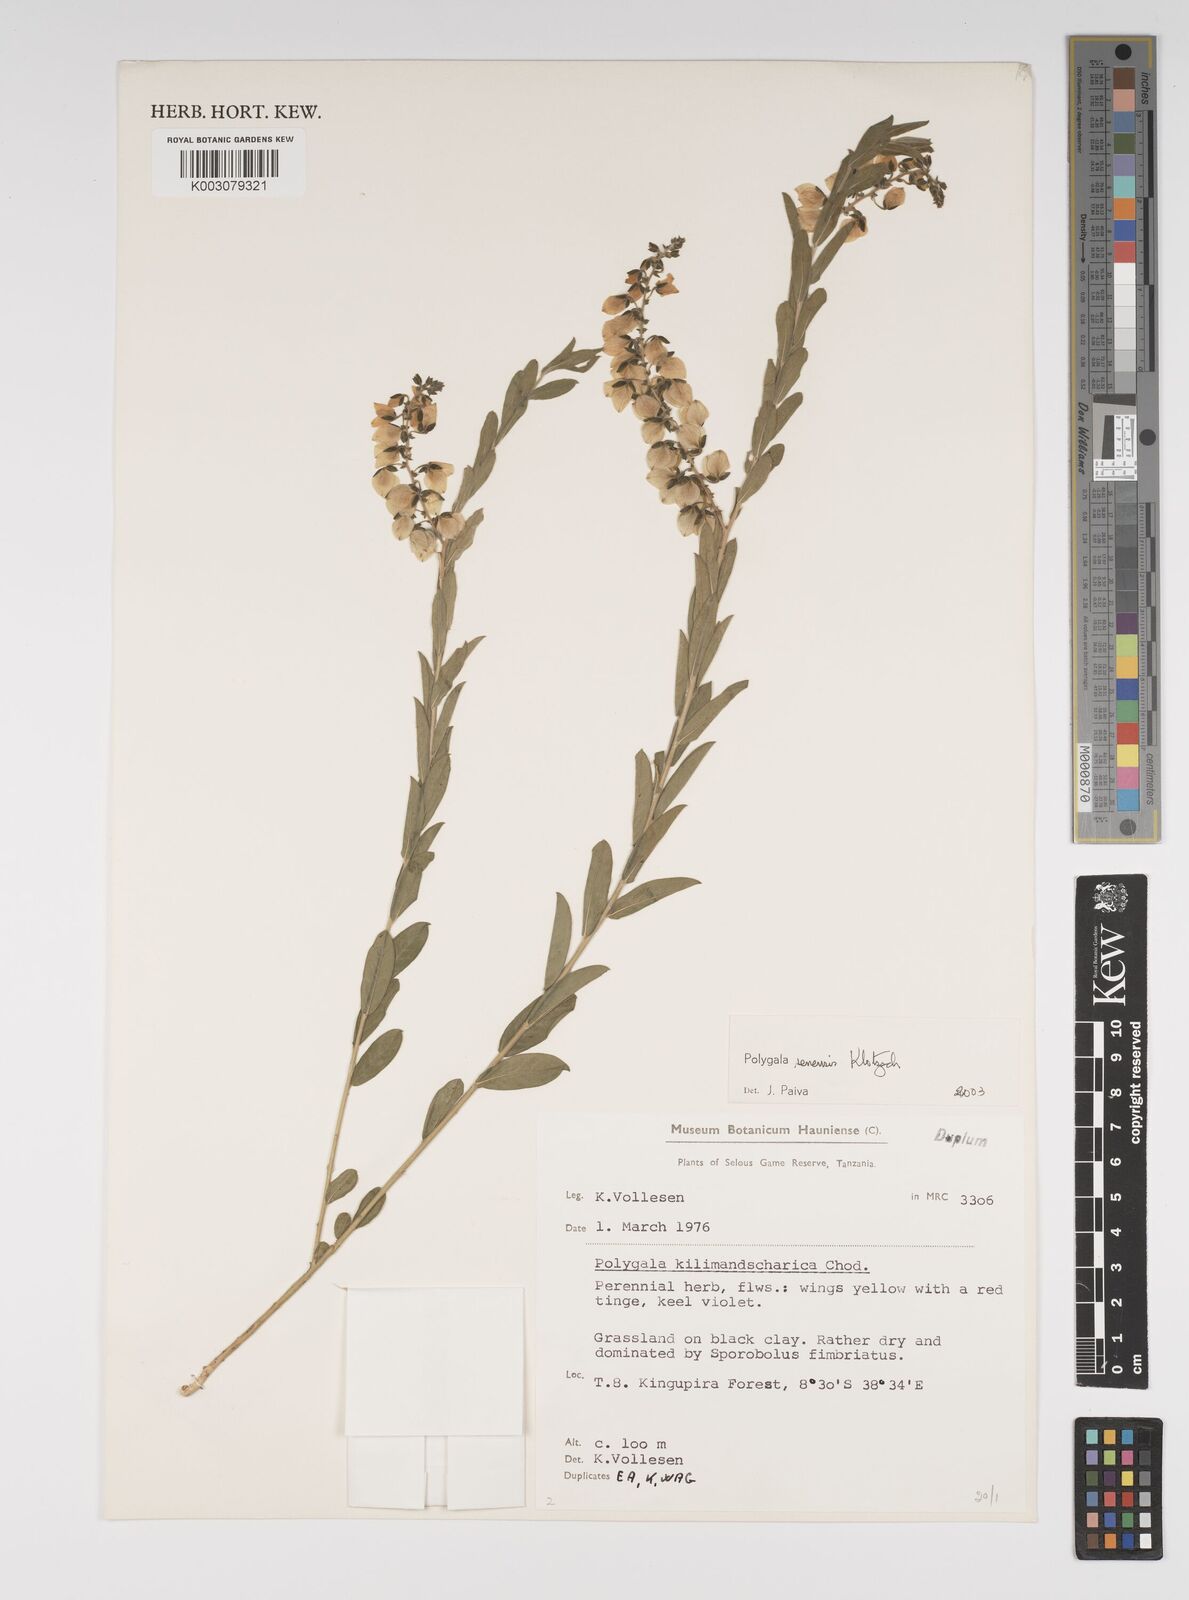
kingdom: Plantae
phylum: Tracheophyta
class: Magnoliopsida
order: Fabales
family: Polygalaceae
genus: Polygala
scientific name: Polygala senensis
